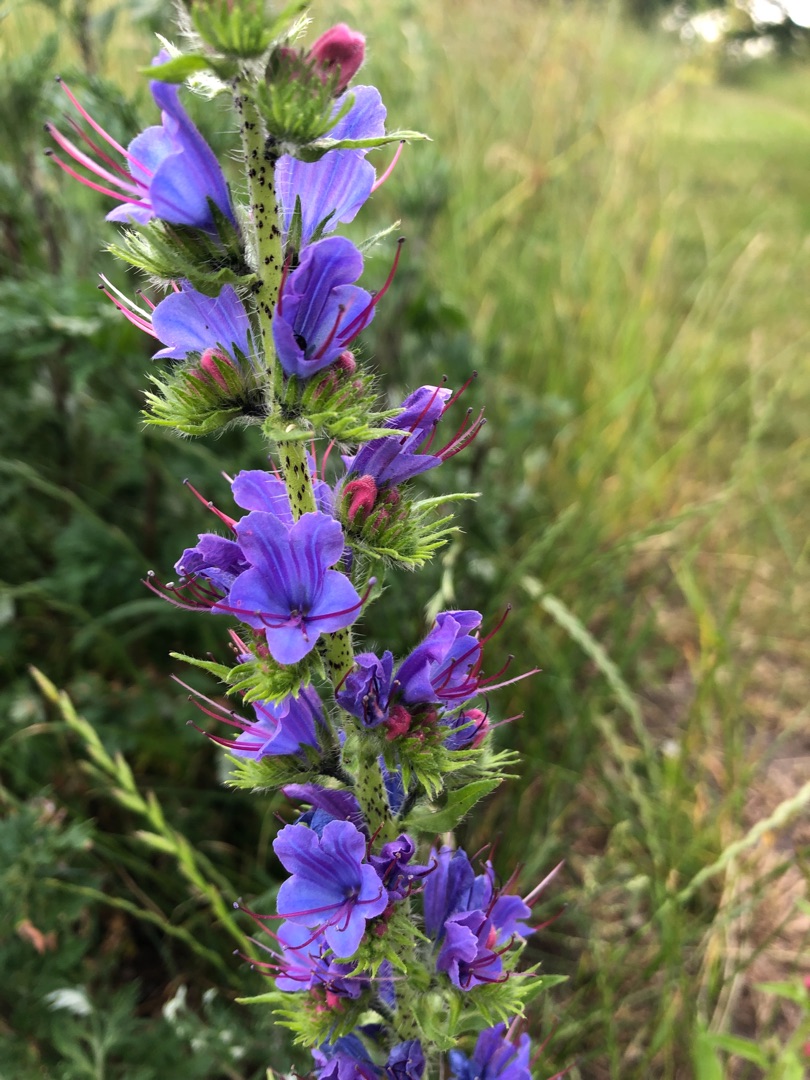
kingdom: Plantae
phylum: Tracheophyta
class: Magnoliopsida
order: Boraginales
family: Boraginaceae
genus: Echium
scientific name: Echium vulgare
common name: Slangehoved
